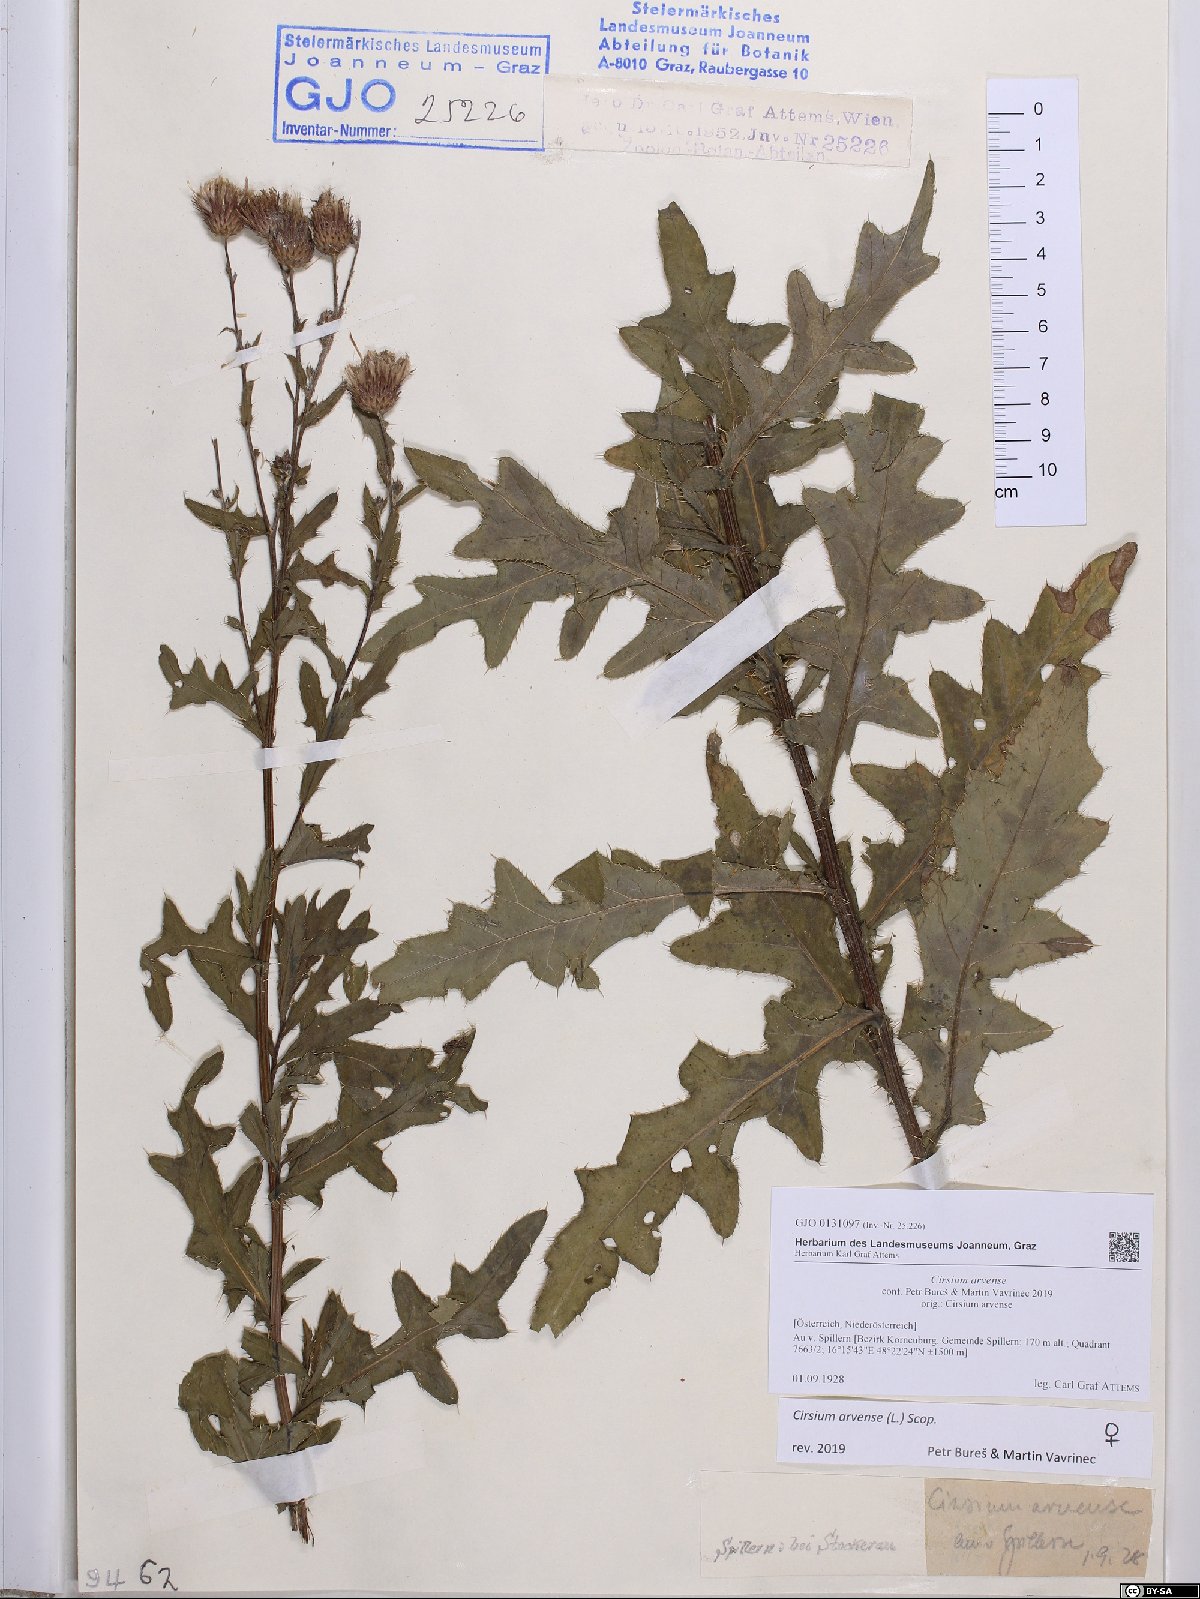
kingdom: Plantae
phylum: Tracheophyta
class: Magnoliopsida
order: Asterales
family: Asteraceae
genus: Cirsium
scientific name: Cirsium arvense
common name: Creeping thistle
